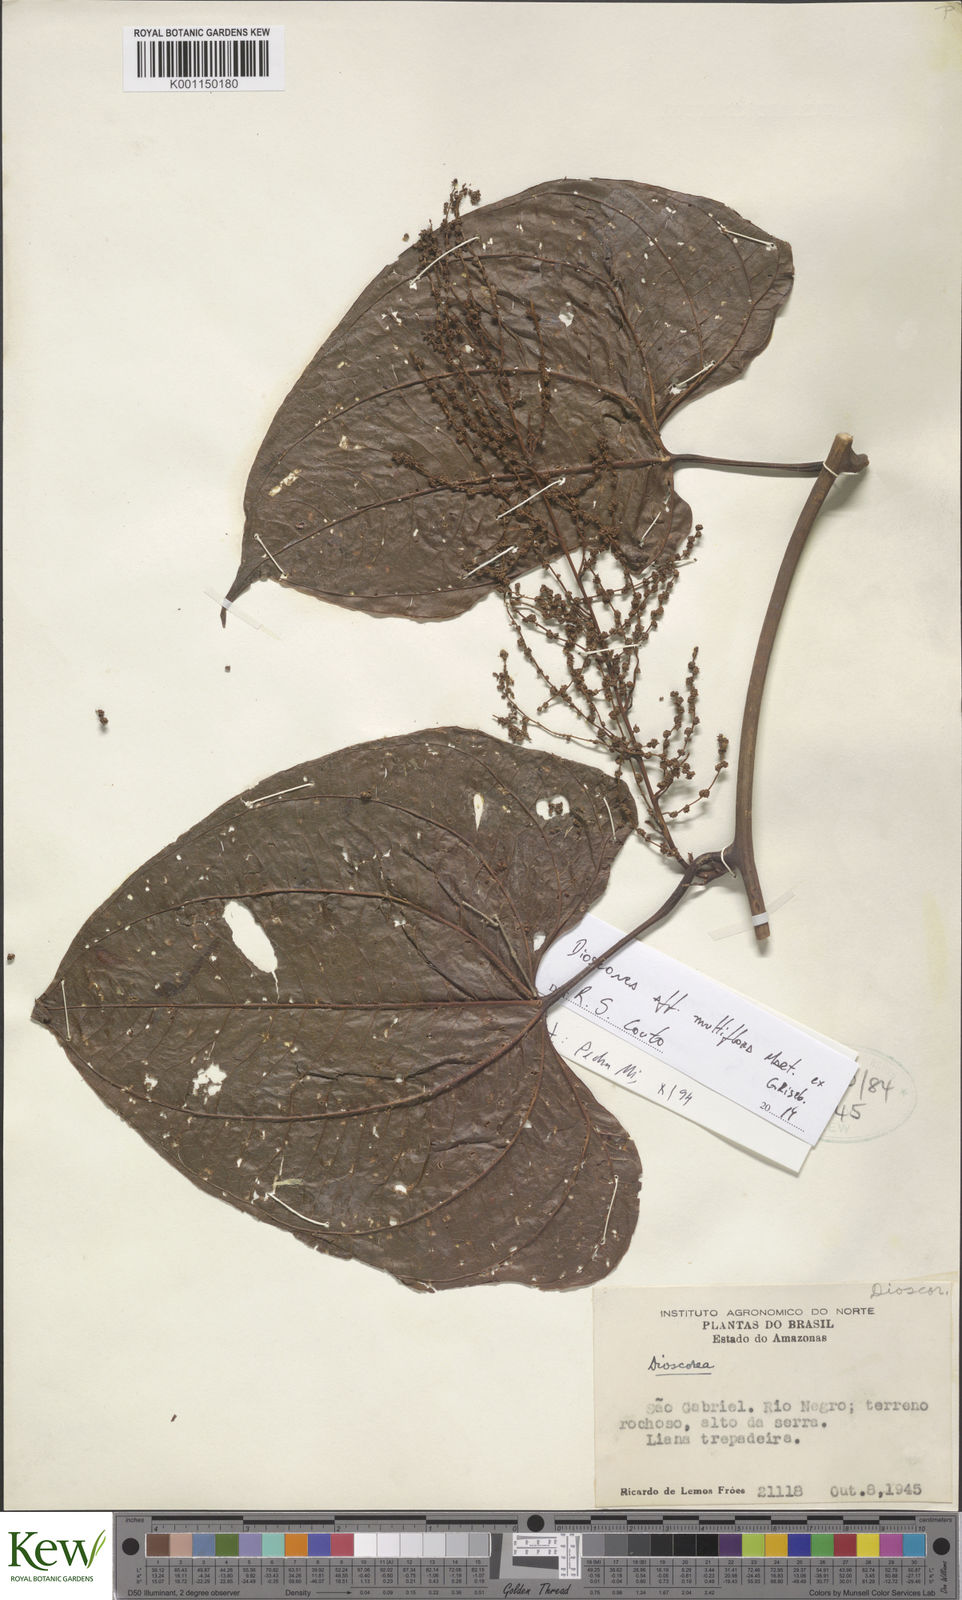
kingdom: Plantae
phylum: Tracheophyta
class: Liliopsida
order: Dioscoreales
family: Dioscoreaceae
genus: Dioscorea
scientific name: Dioscorea abysmophila
